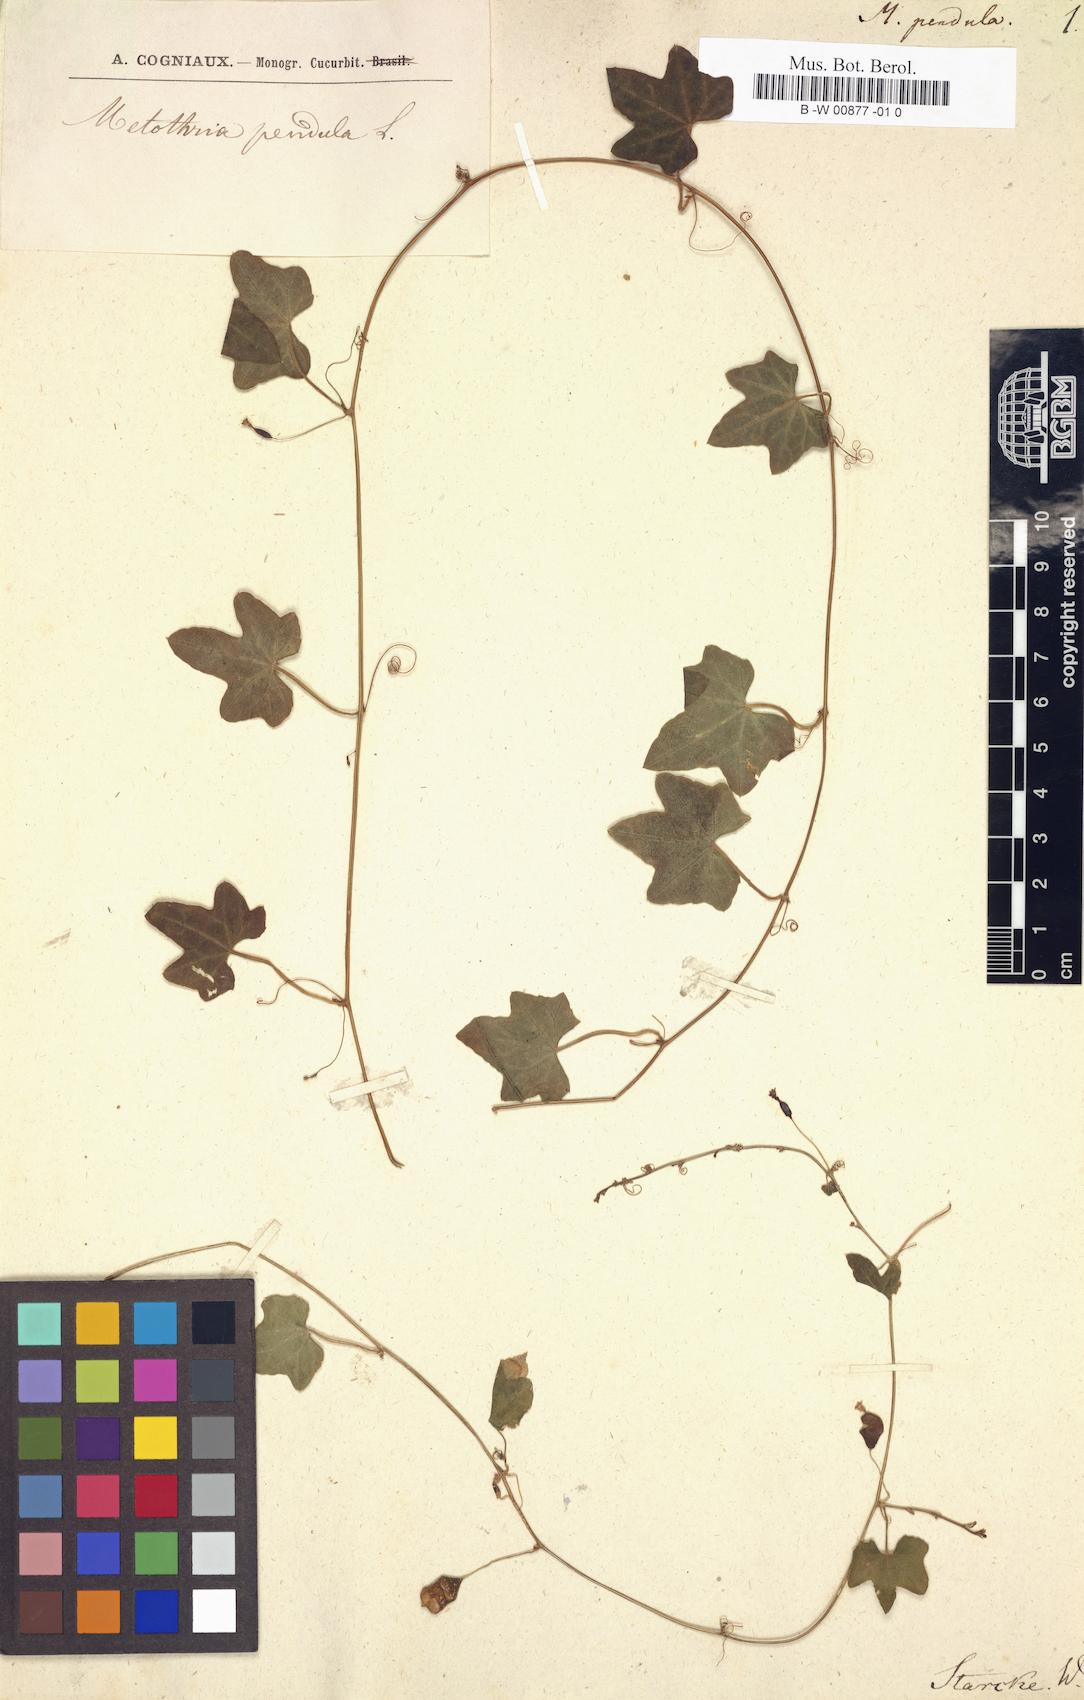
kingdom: Plantae
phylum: Tracheophyta
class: Magnoliopsida
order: Cucurbitales
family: Cucurbitaceae
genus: Melothria
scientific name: Melothria pendula
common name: Creeping-cucumber
